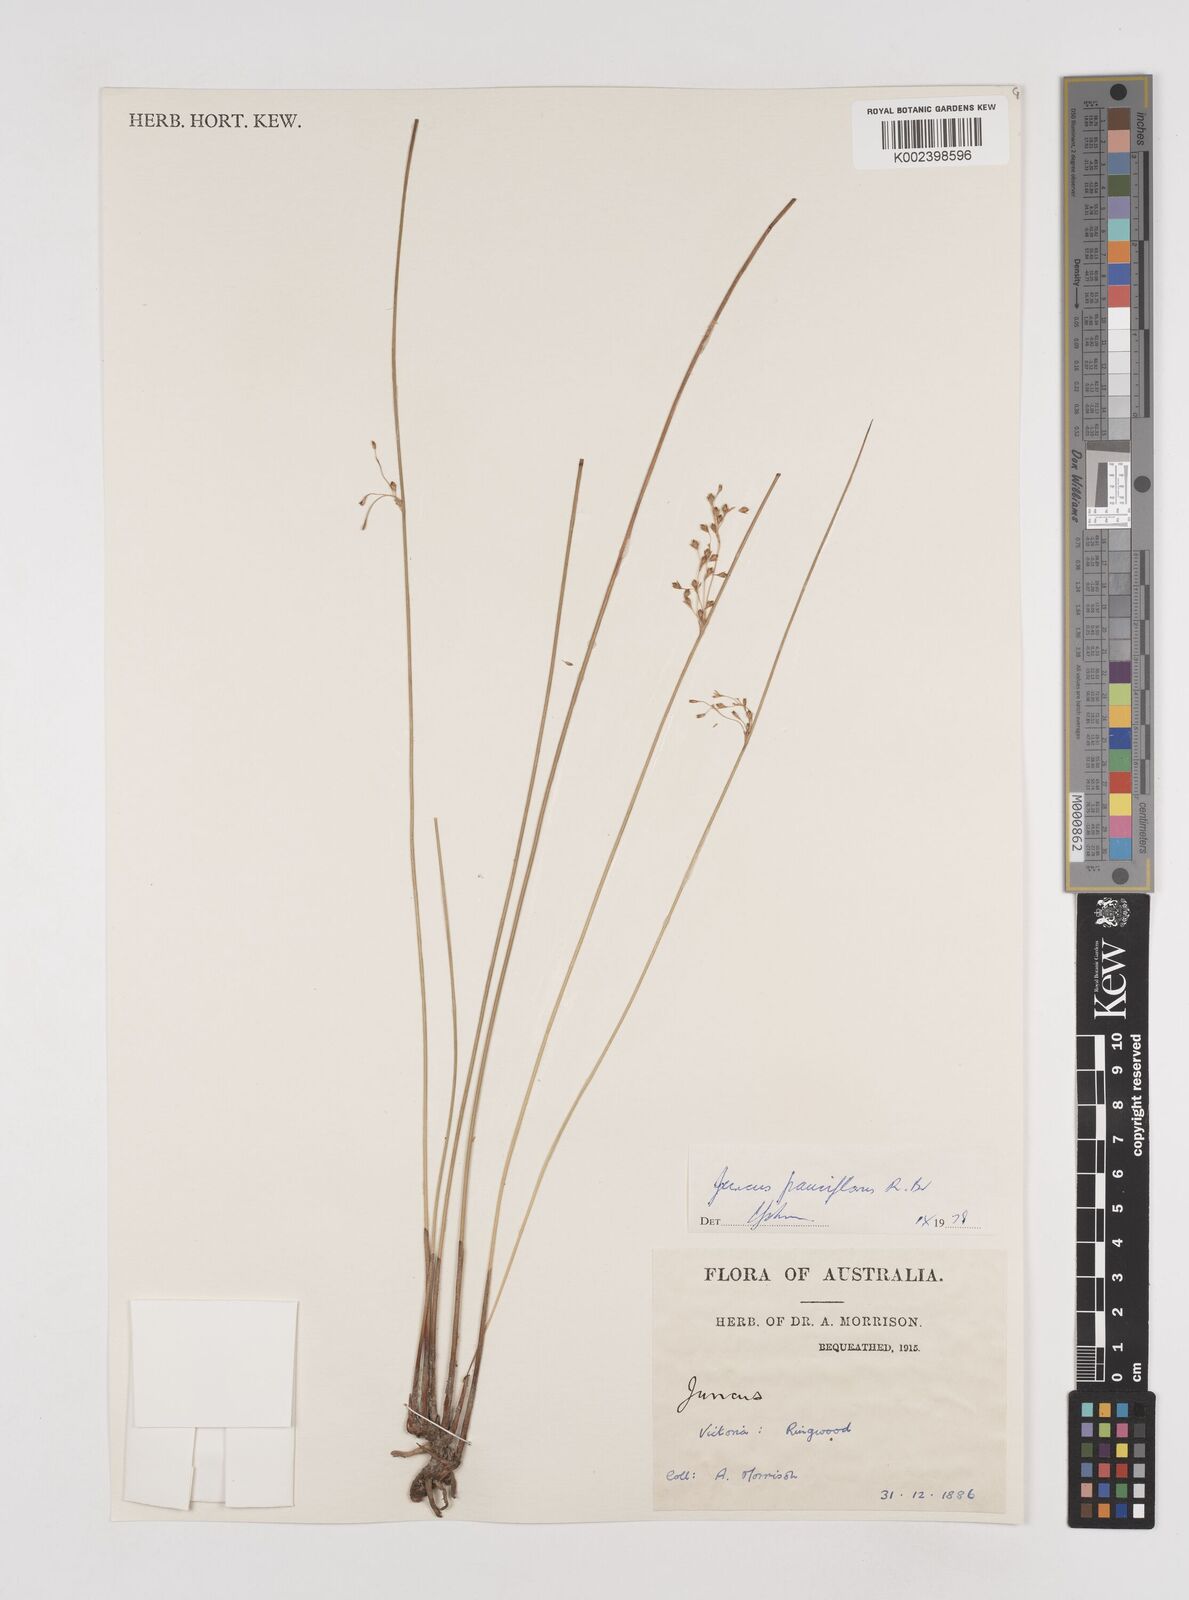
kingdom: Plantae
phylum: Tracheophyta
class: Liliopsida
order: Poales
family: Juncaceae
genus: Juncus
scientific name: Juncus pauciflorus
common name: Loose-flowered rush
